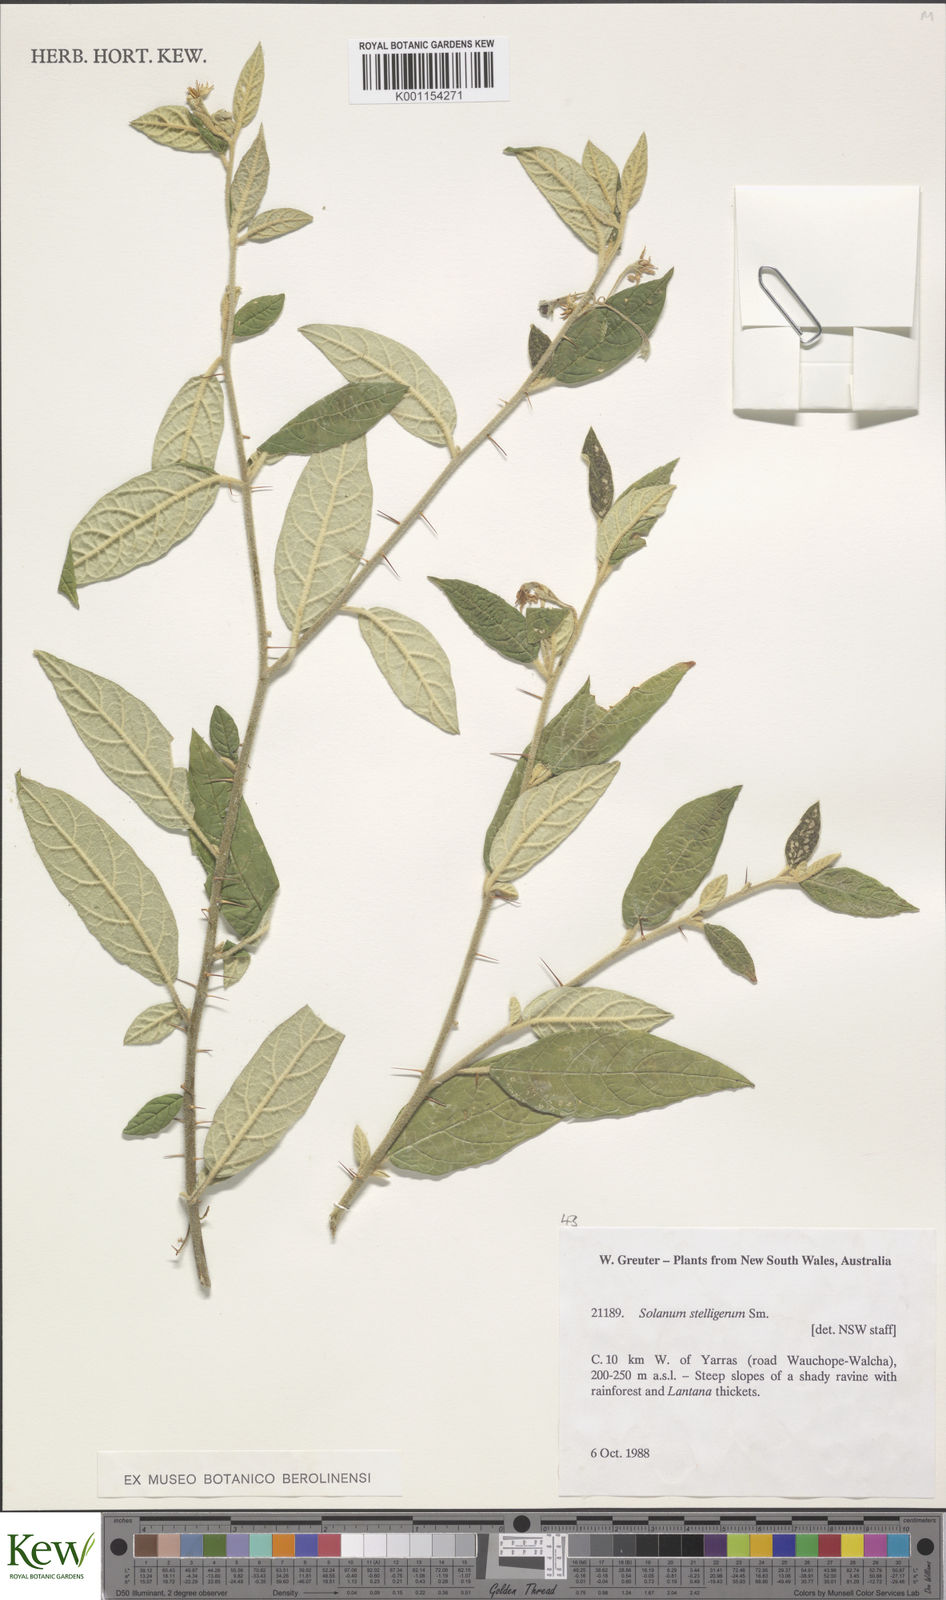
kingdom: Plantae
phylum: Tracheophyta
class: Magnoliopsida
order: Solanales
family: Solanaceae
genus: Solanum
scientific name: Solanum stelligerum
